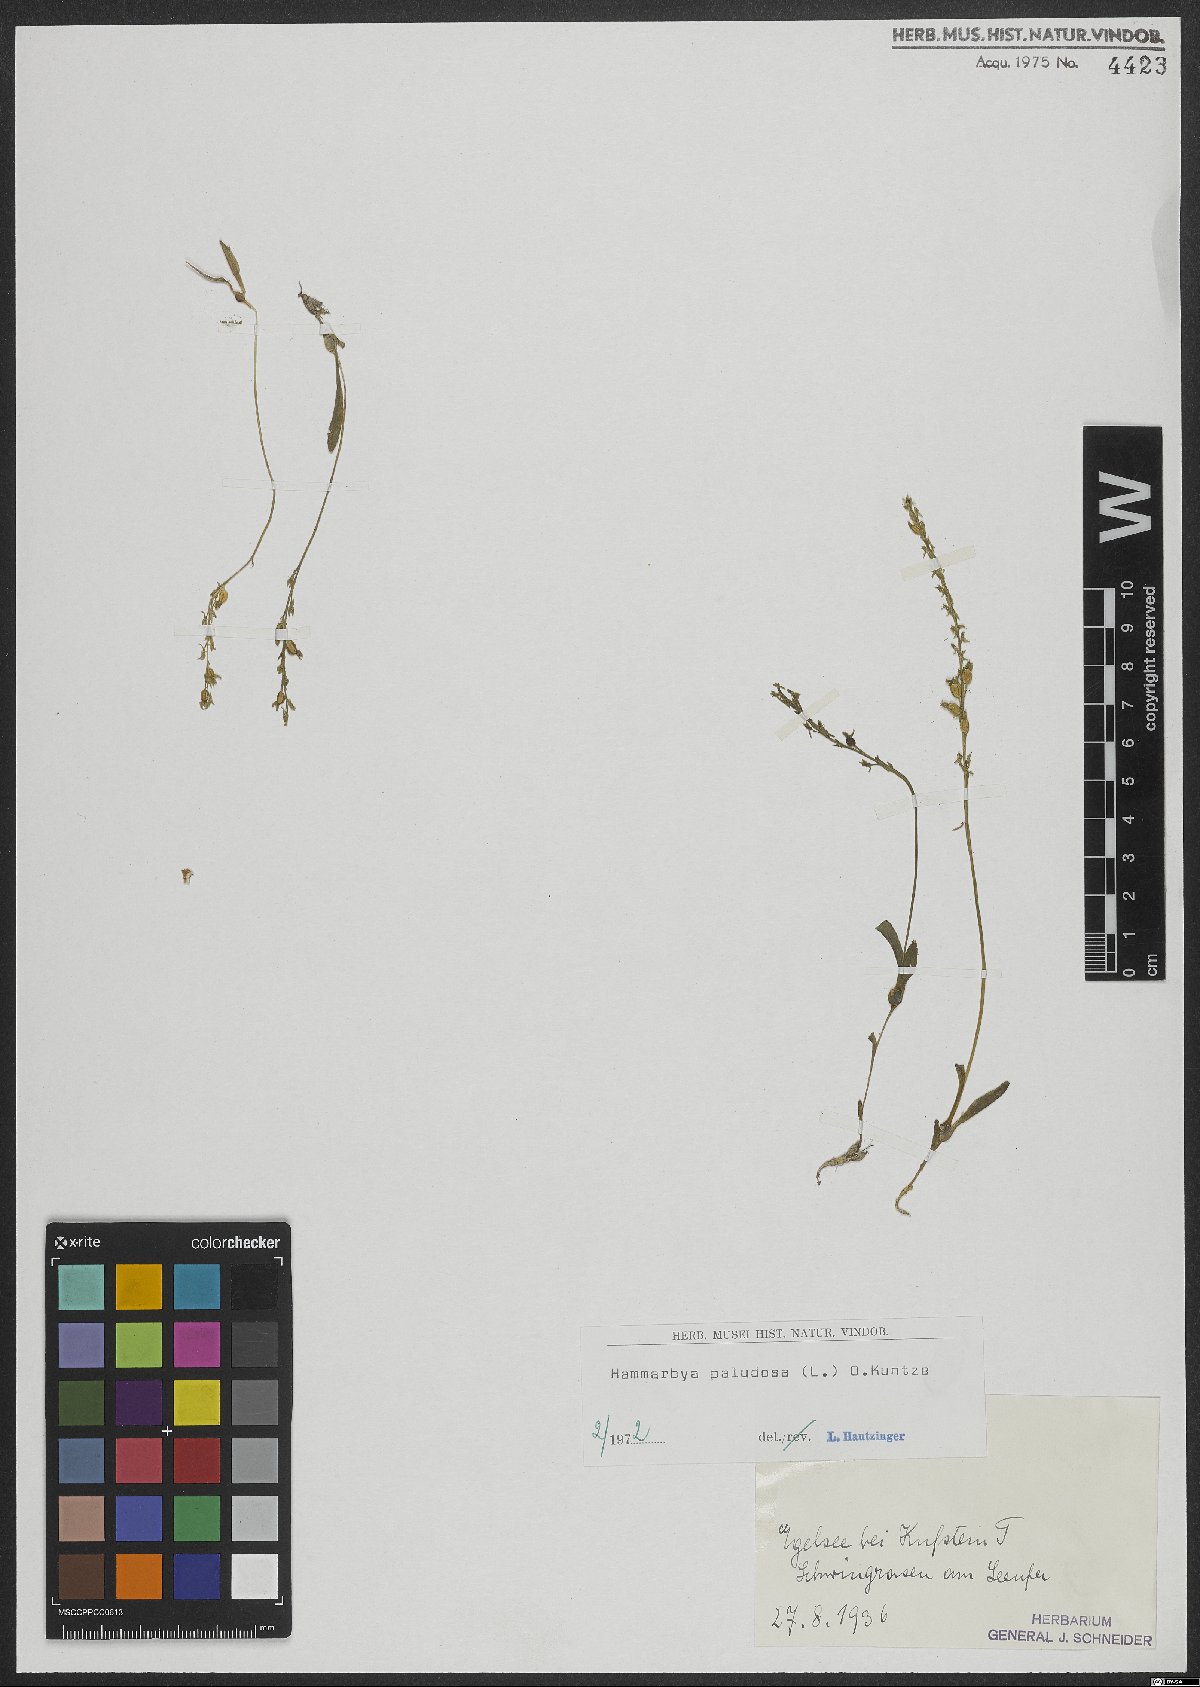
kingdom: Plantae
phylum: Tracheophyta
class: Liliopsida
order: Asparagales
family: Orchidaceae
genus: Hammarbya
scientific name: Hammarbya paludosa
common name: Bog orchid
